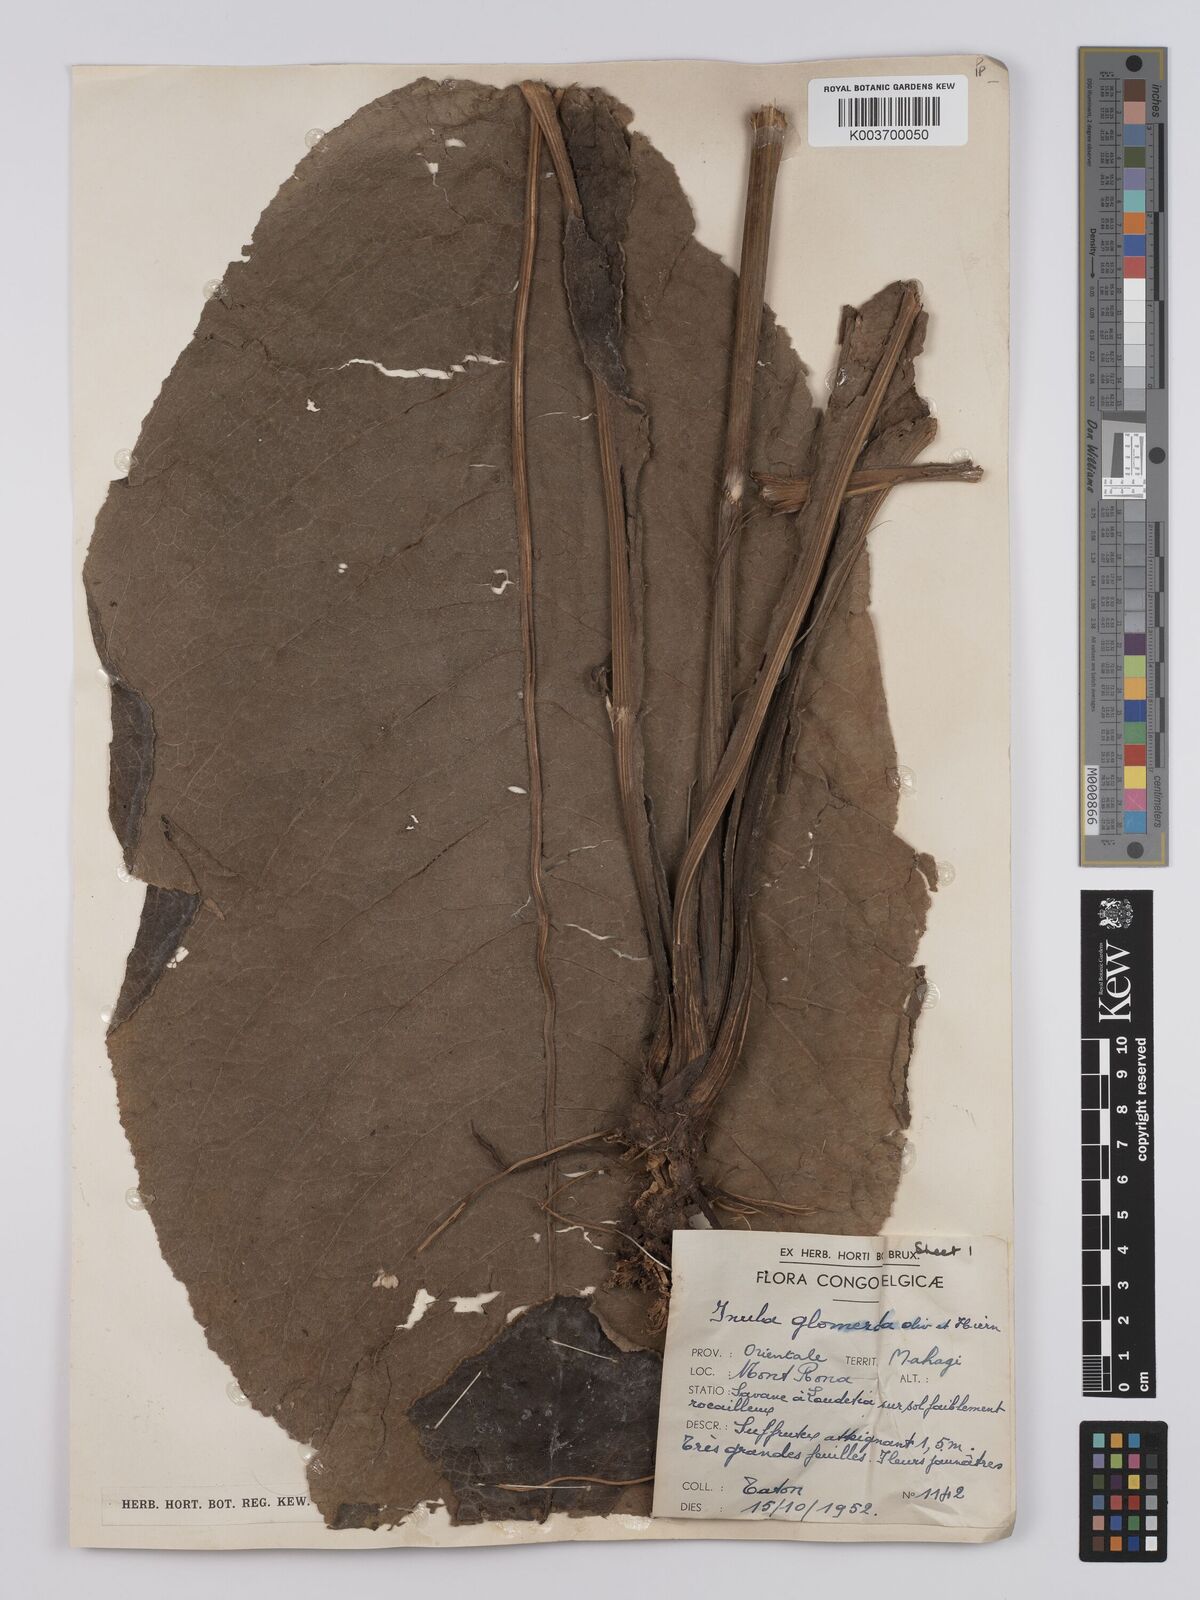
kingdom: Plantae
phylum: Tracheophyta
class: Magnoliopsida
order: Asterales
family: Asteraceae
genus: Inula
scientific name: Inula glomerata
